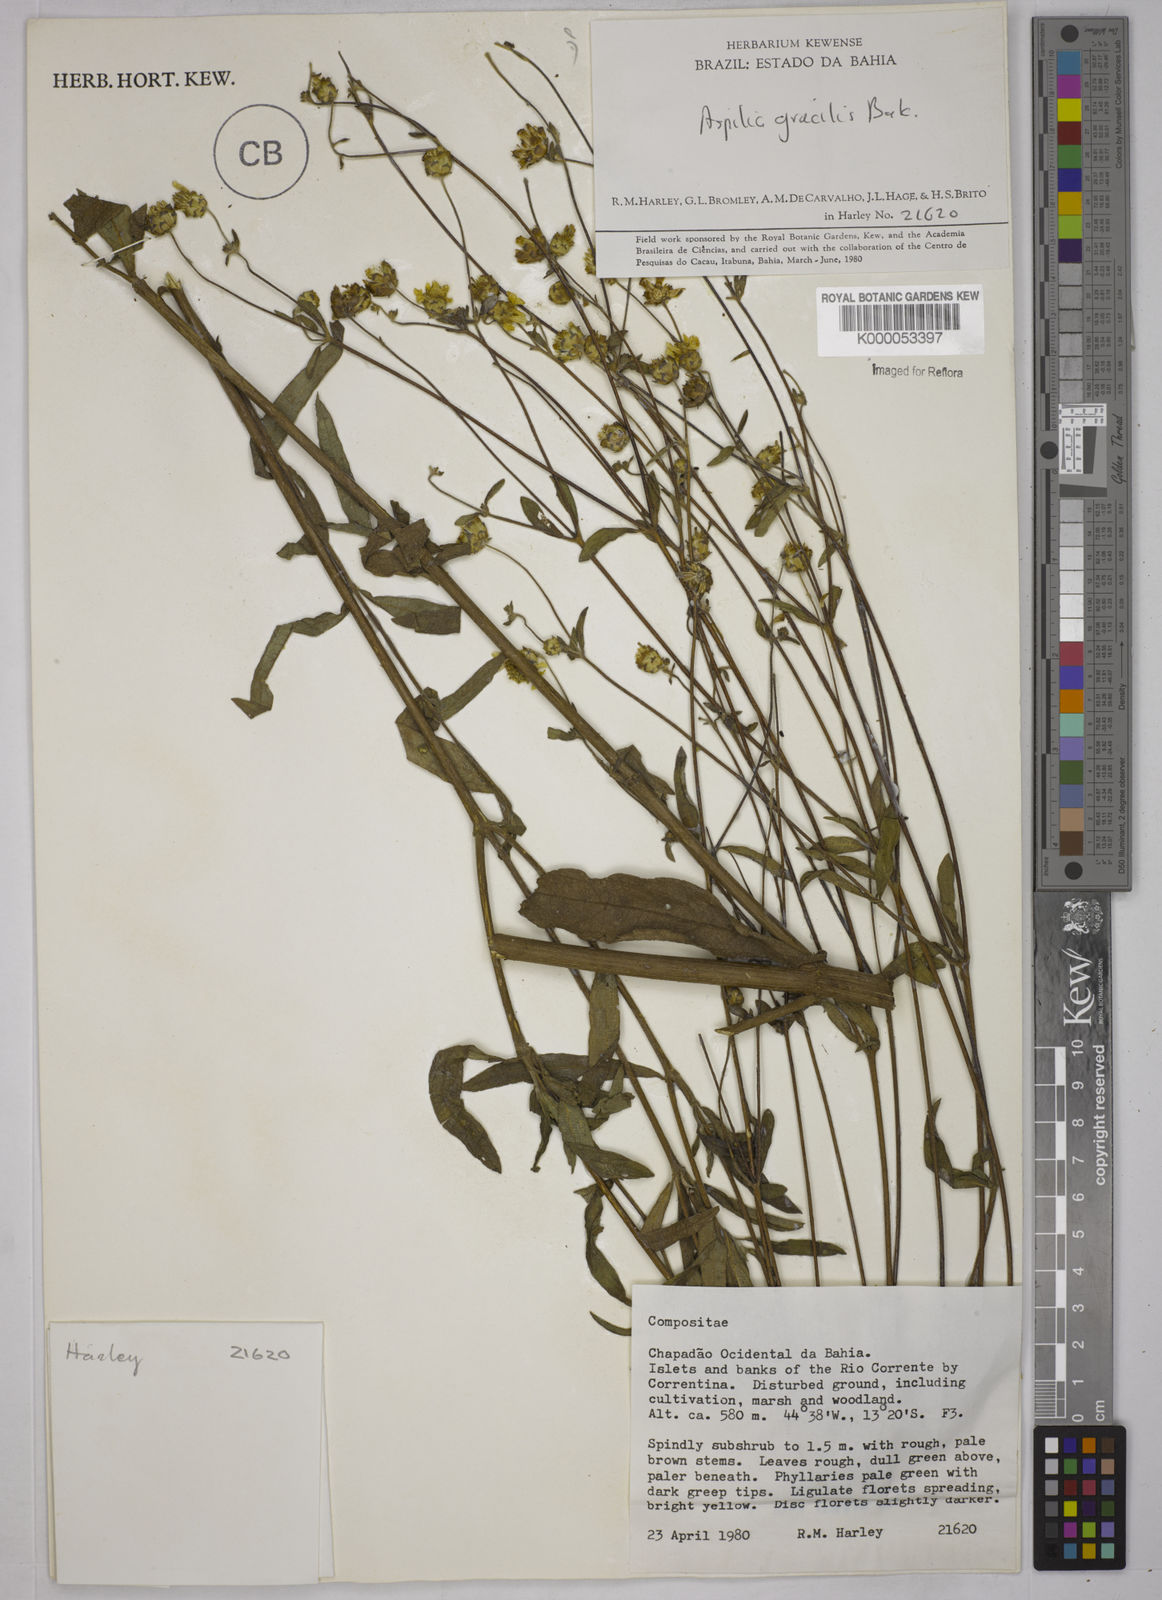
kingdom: Plantae
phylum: Tracheophyta
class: Magnoliopsida
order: Asterales
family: Asteraceae
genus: Wedelia
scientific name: Wedelia floribunda
